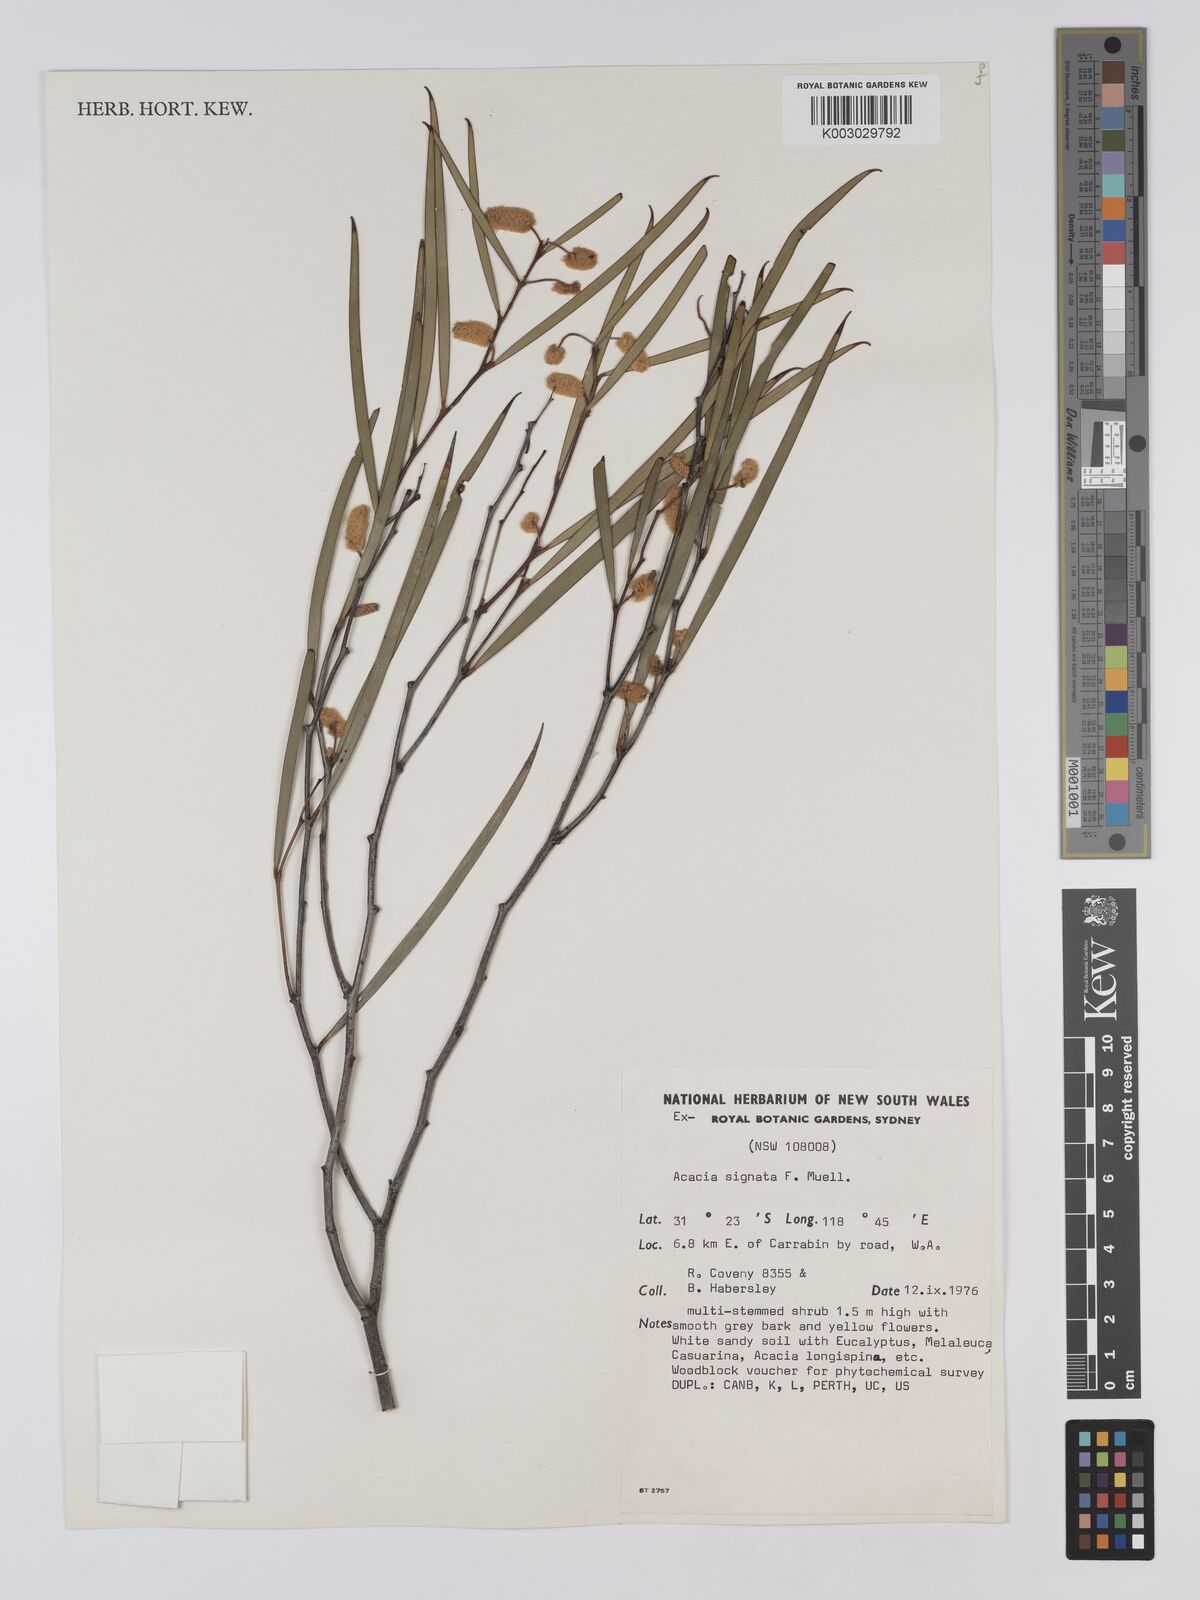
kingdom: Plantae
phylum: Tracheophyta
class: Magnoliopsida
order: Fabales
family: Fabaceae
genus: Acacia
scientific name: Acacia signata
